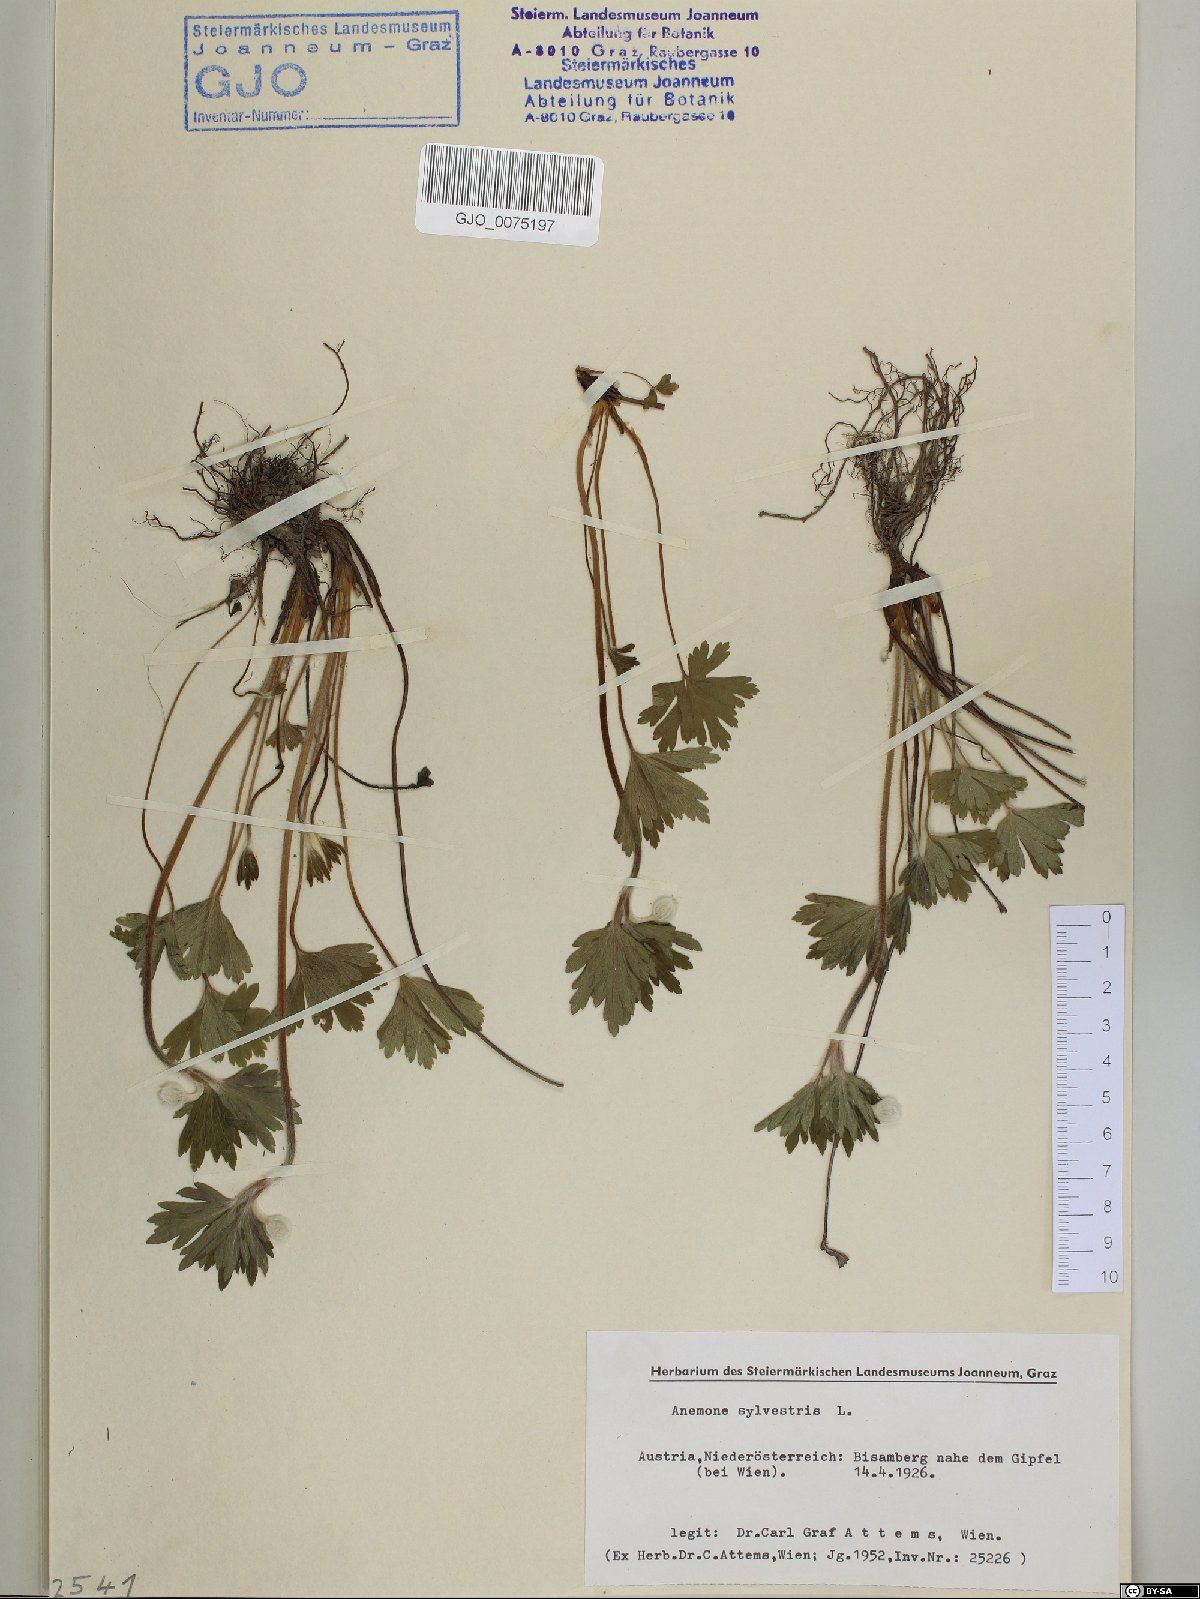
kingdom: Plantae
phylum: Tracheophyta
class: Magnoliopsida
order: Ranunculales
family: Ranunculaceae
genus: Anemone
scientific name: Anemone sylvestris
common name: Snowdrop anemone
